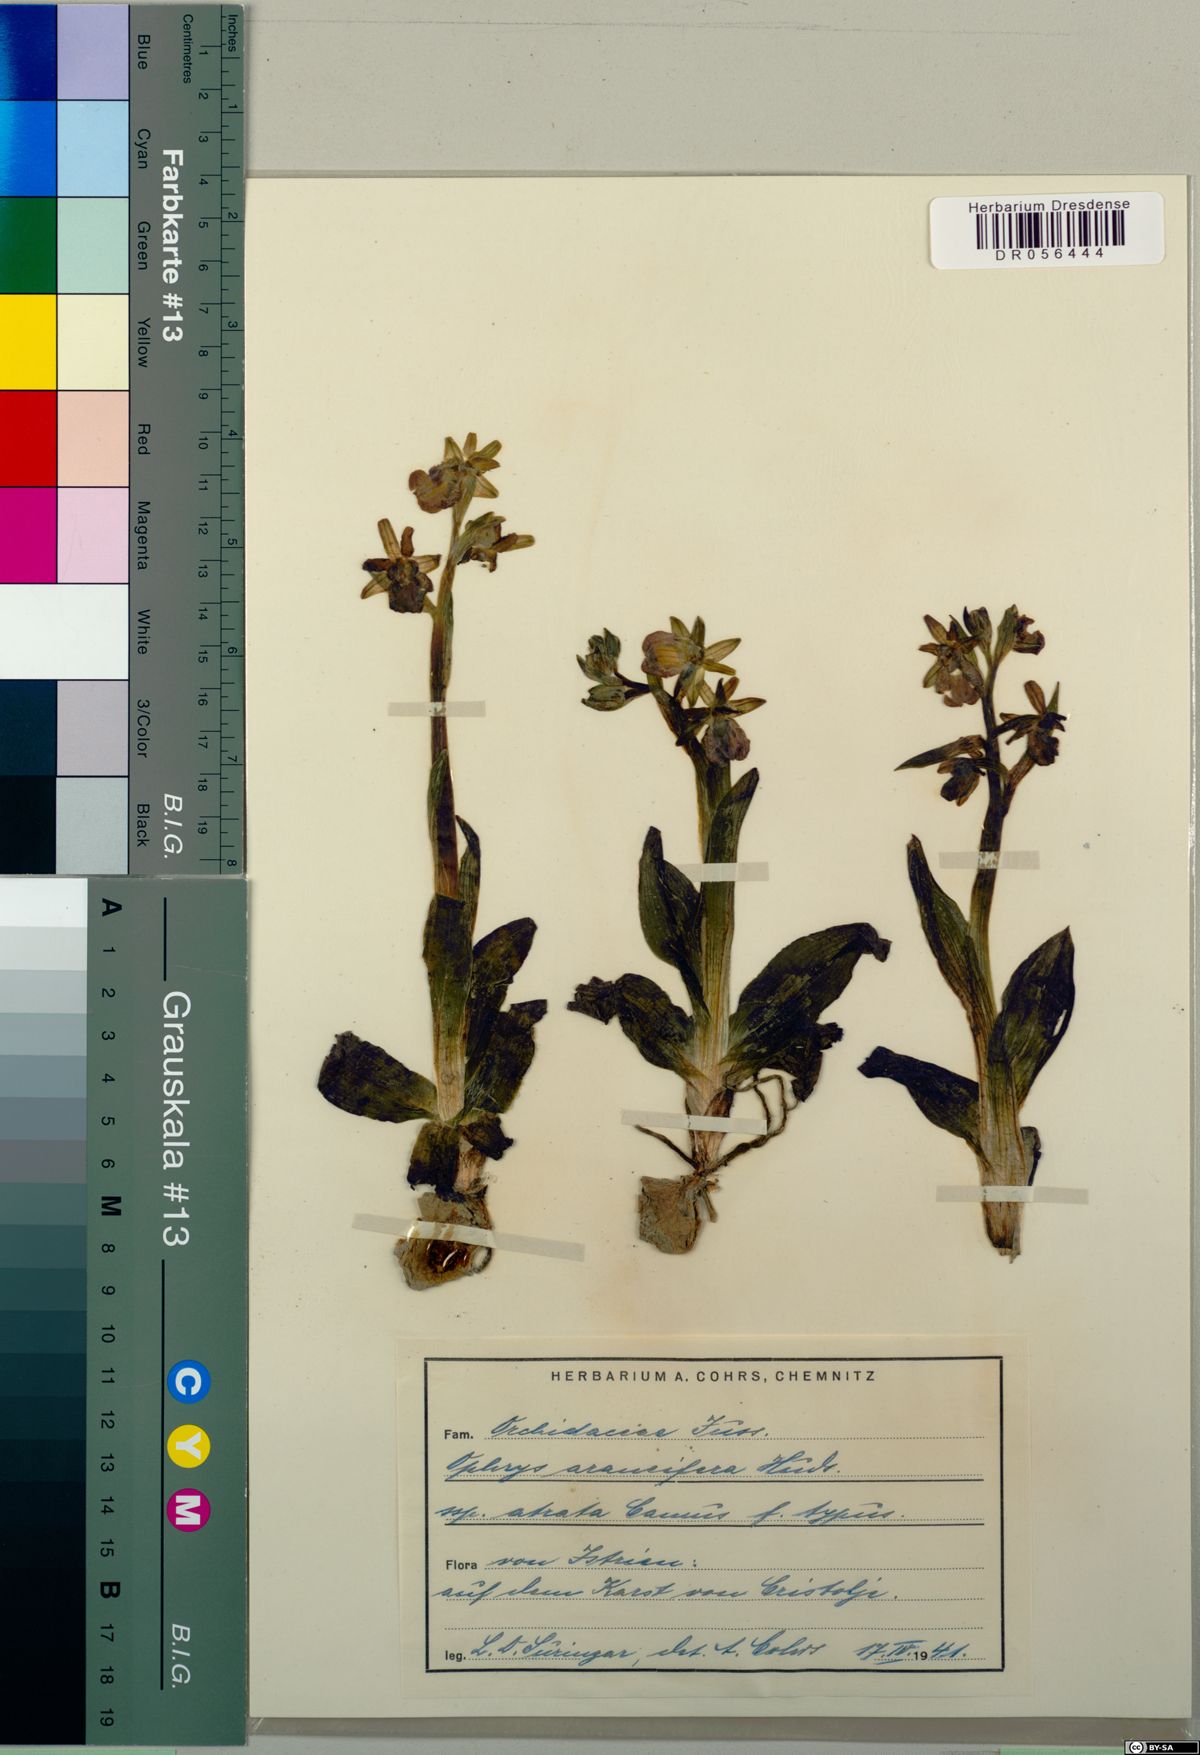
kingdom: Plantae
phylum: Tracheophyta
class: Liliopsida
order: Asparagales
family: Orchidaceae
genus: Ophrys
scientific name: Ophrys sphegodes
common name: Early spider-orchid
